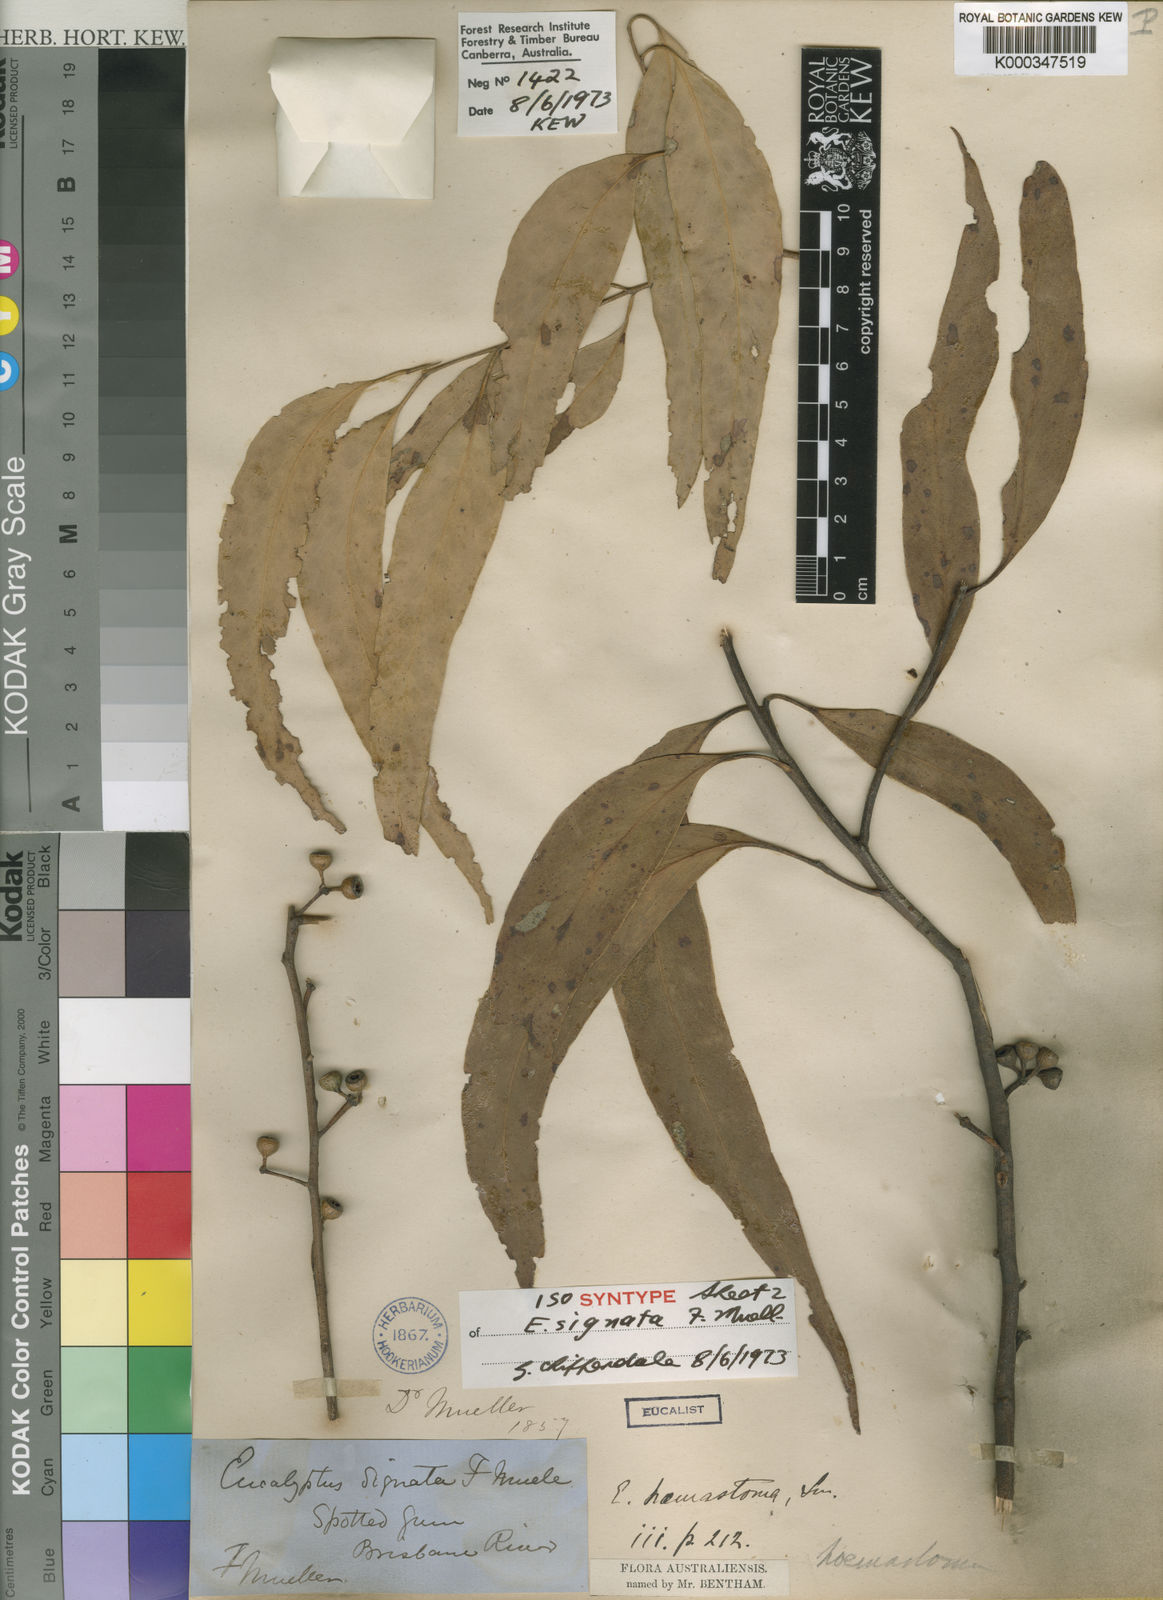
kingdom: Plantae
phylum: Tracheophyta
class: Magnoliopsida
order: Myrtales
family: Myrtaceae
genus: Eucalyptus
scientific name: Eucalyptus signata
